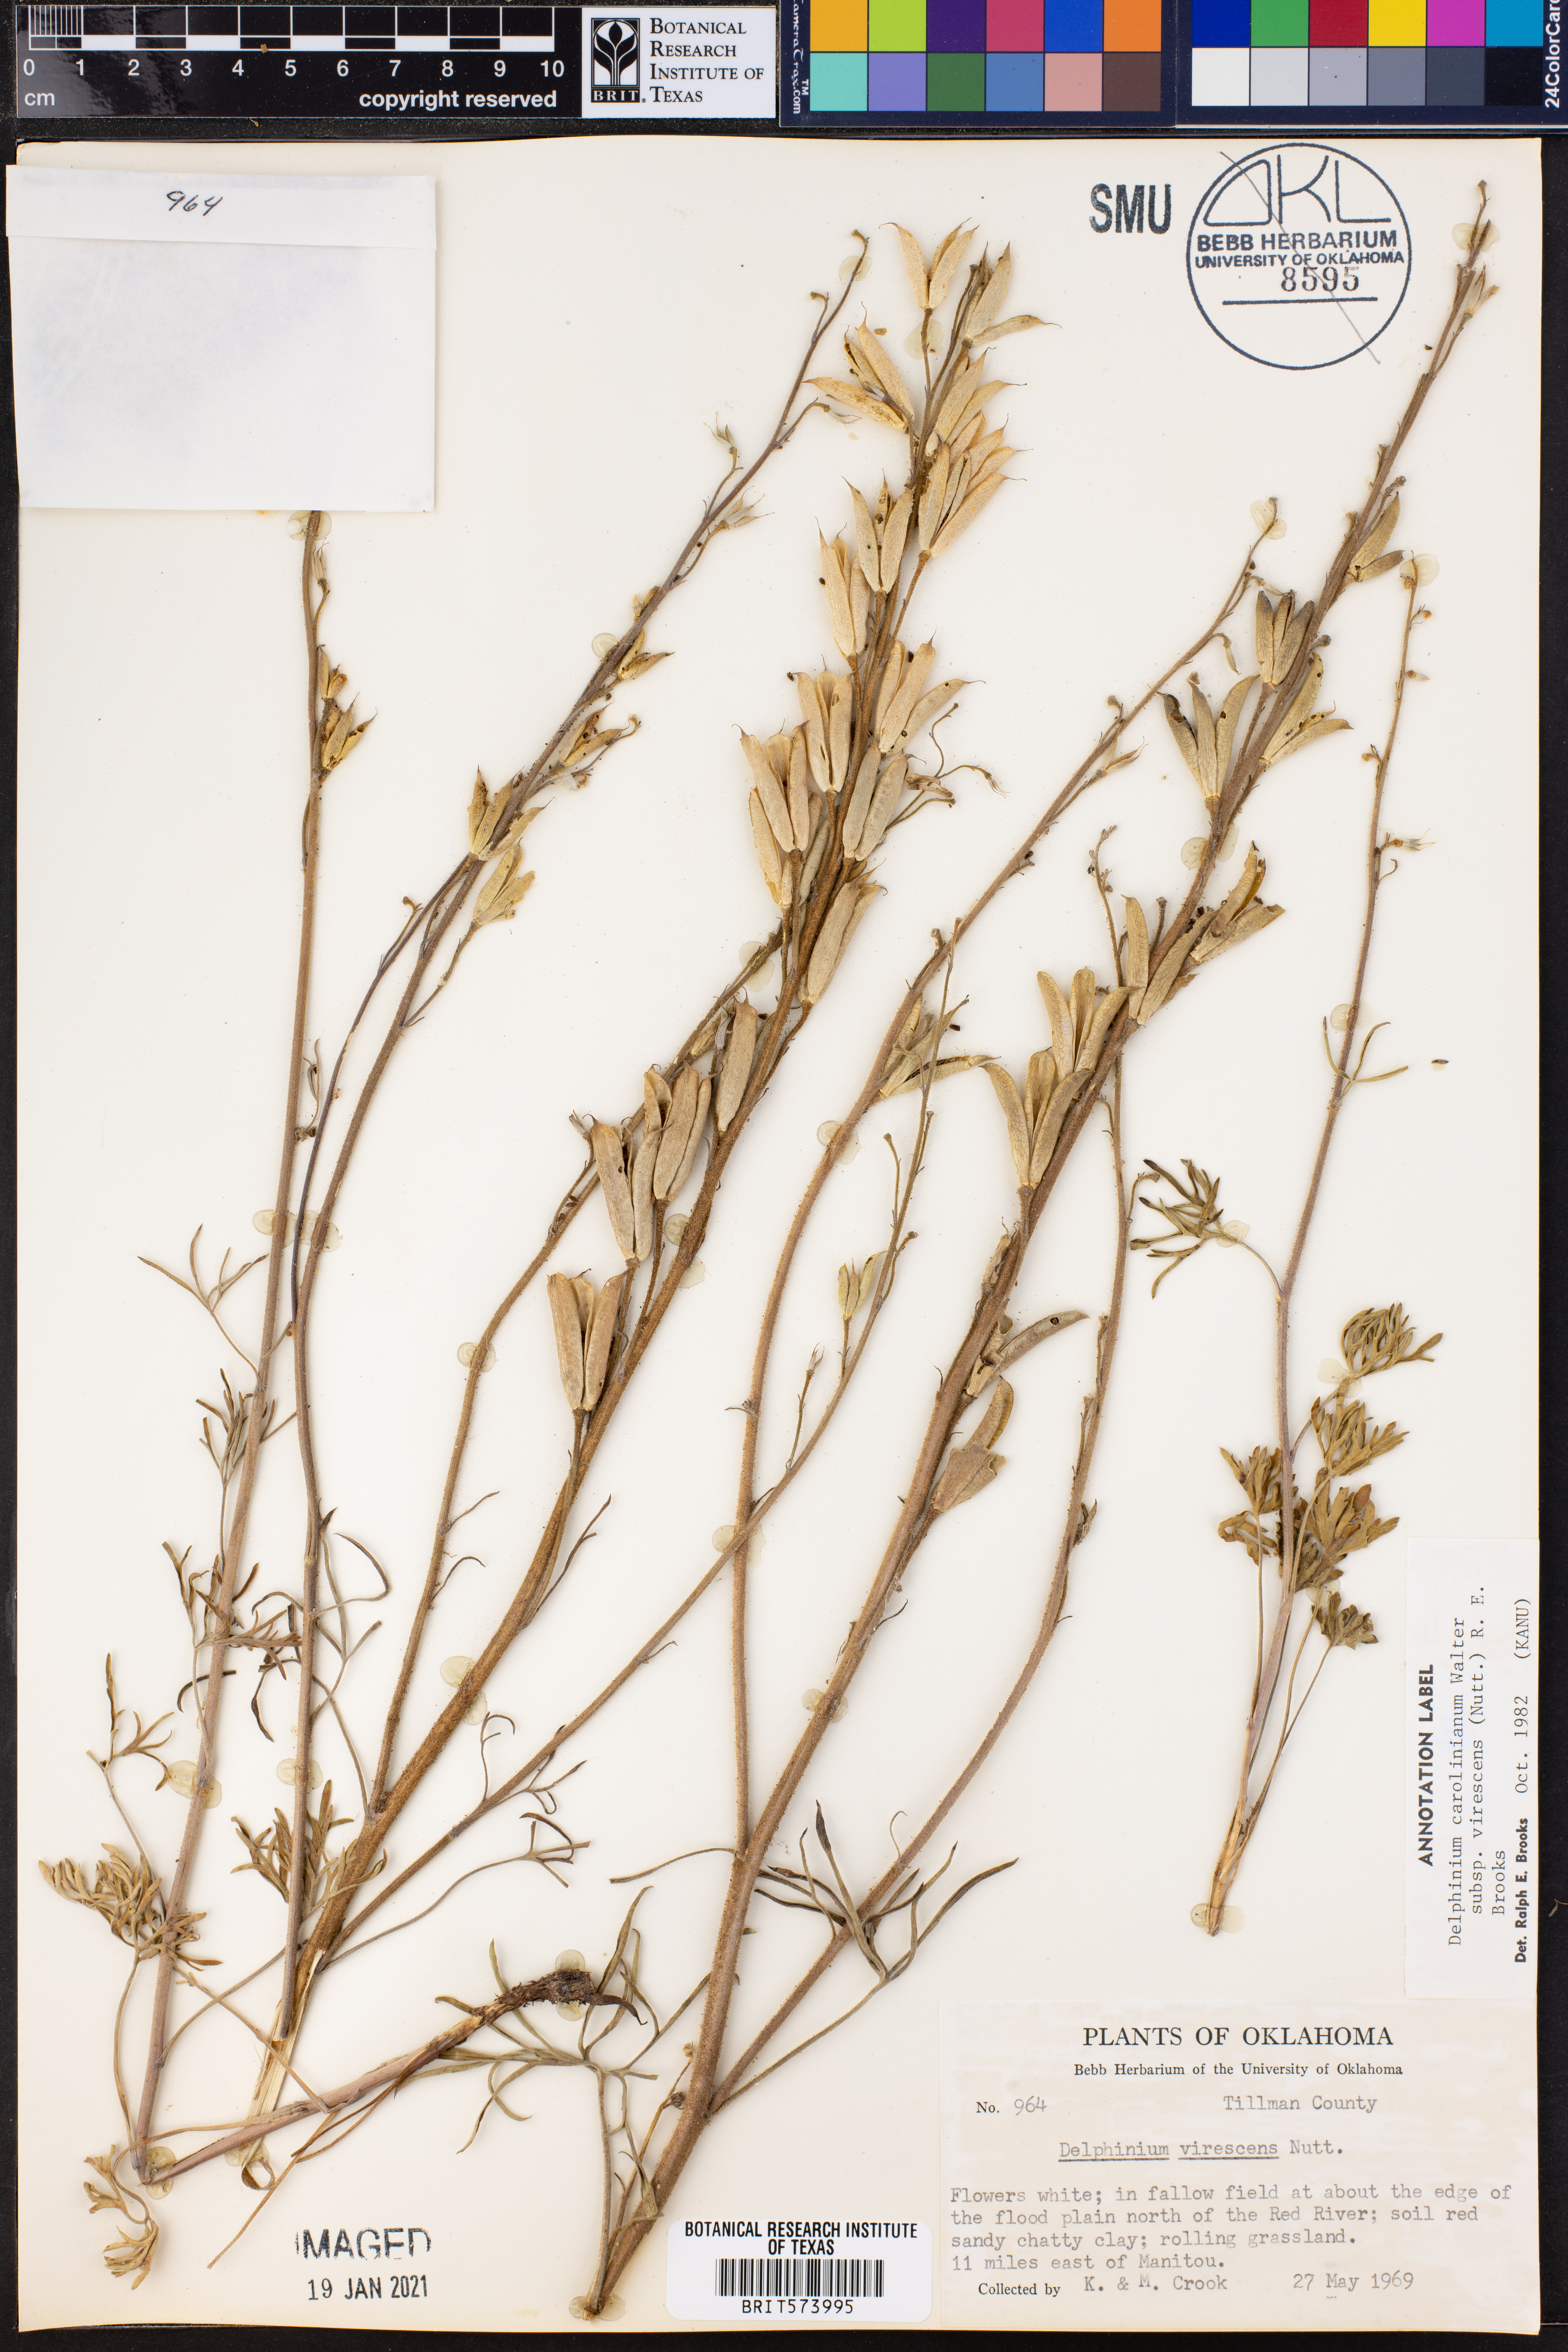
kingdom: Plantae
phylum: Tracheophyta
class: Magnoliopsida
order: Ranunculales
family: Ranunculaceae
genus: Delphinium
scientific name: Delphinium carolinianum
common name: Carolina larkspur
